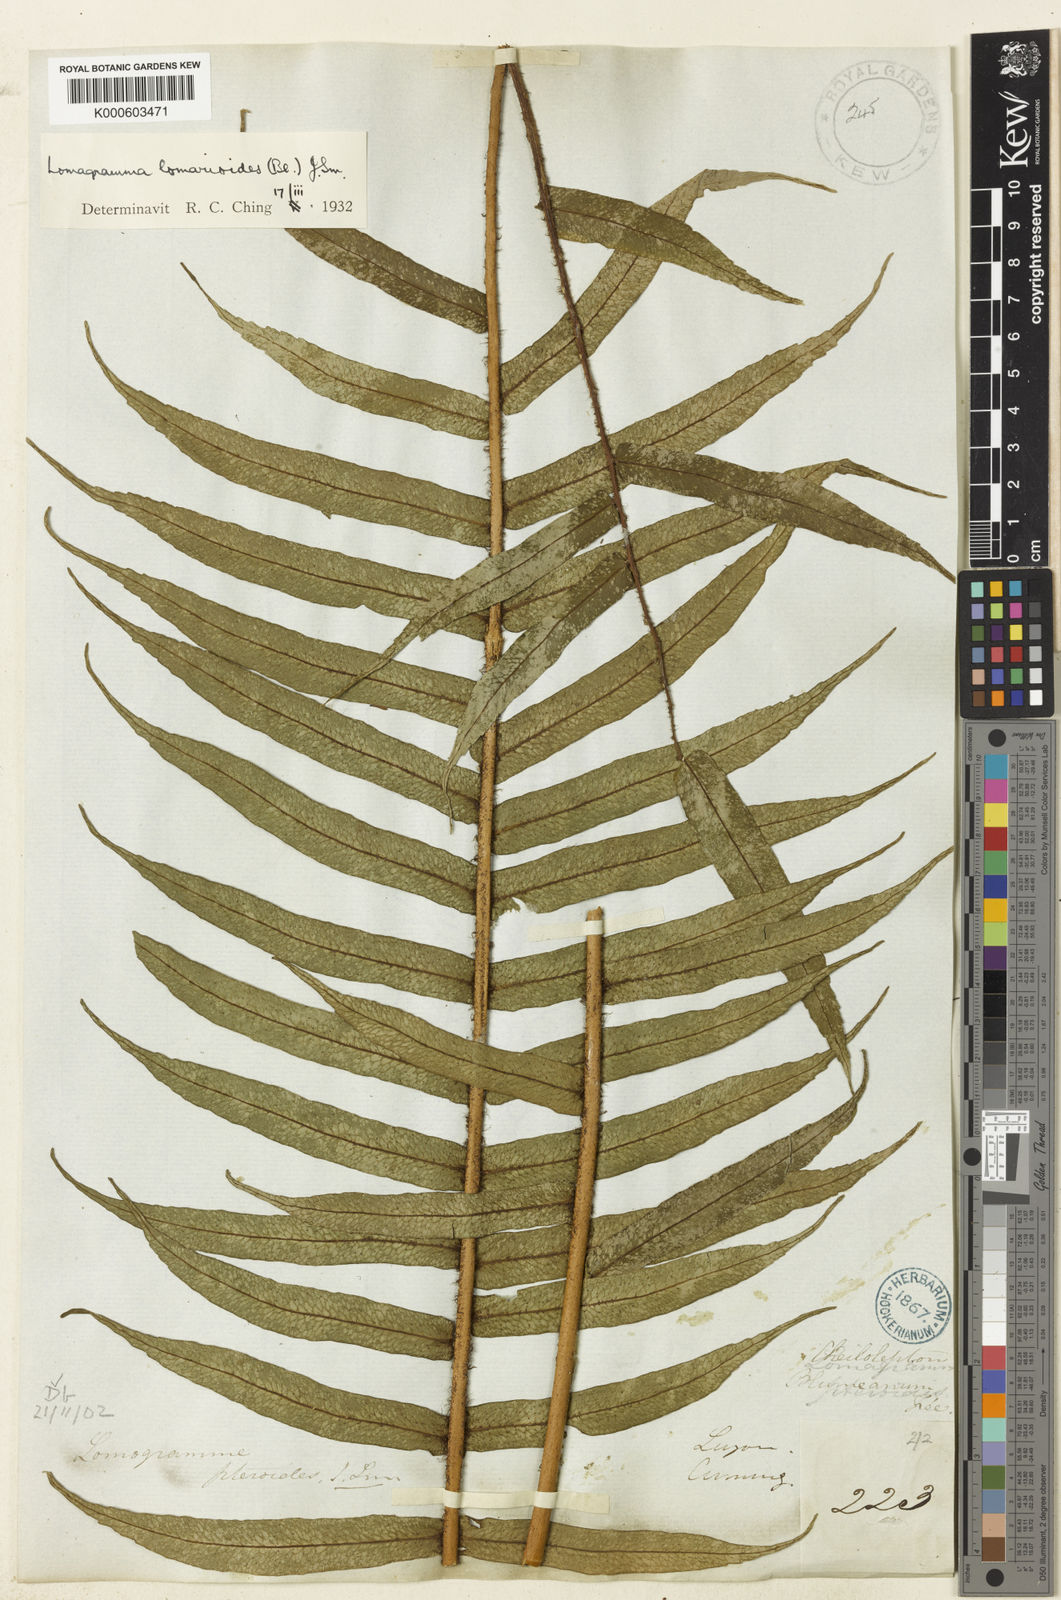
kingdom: Plantae
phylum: Tracheophyta
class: Polypodiopsida
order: Polypodiales
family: Dryopteridaceae
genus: Lomagramma
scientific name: Lomagramma pteroides
